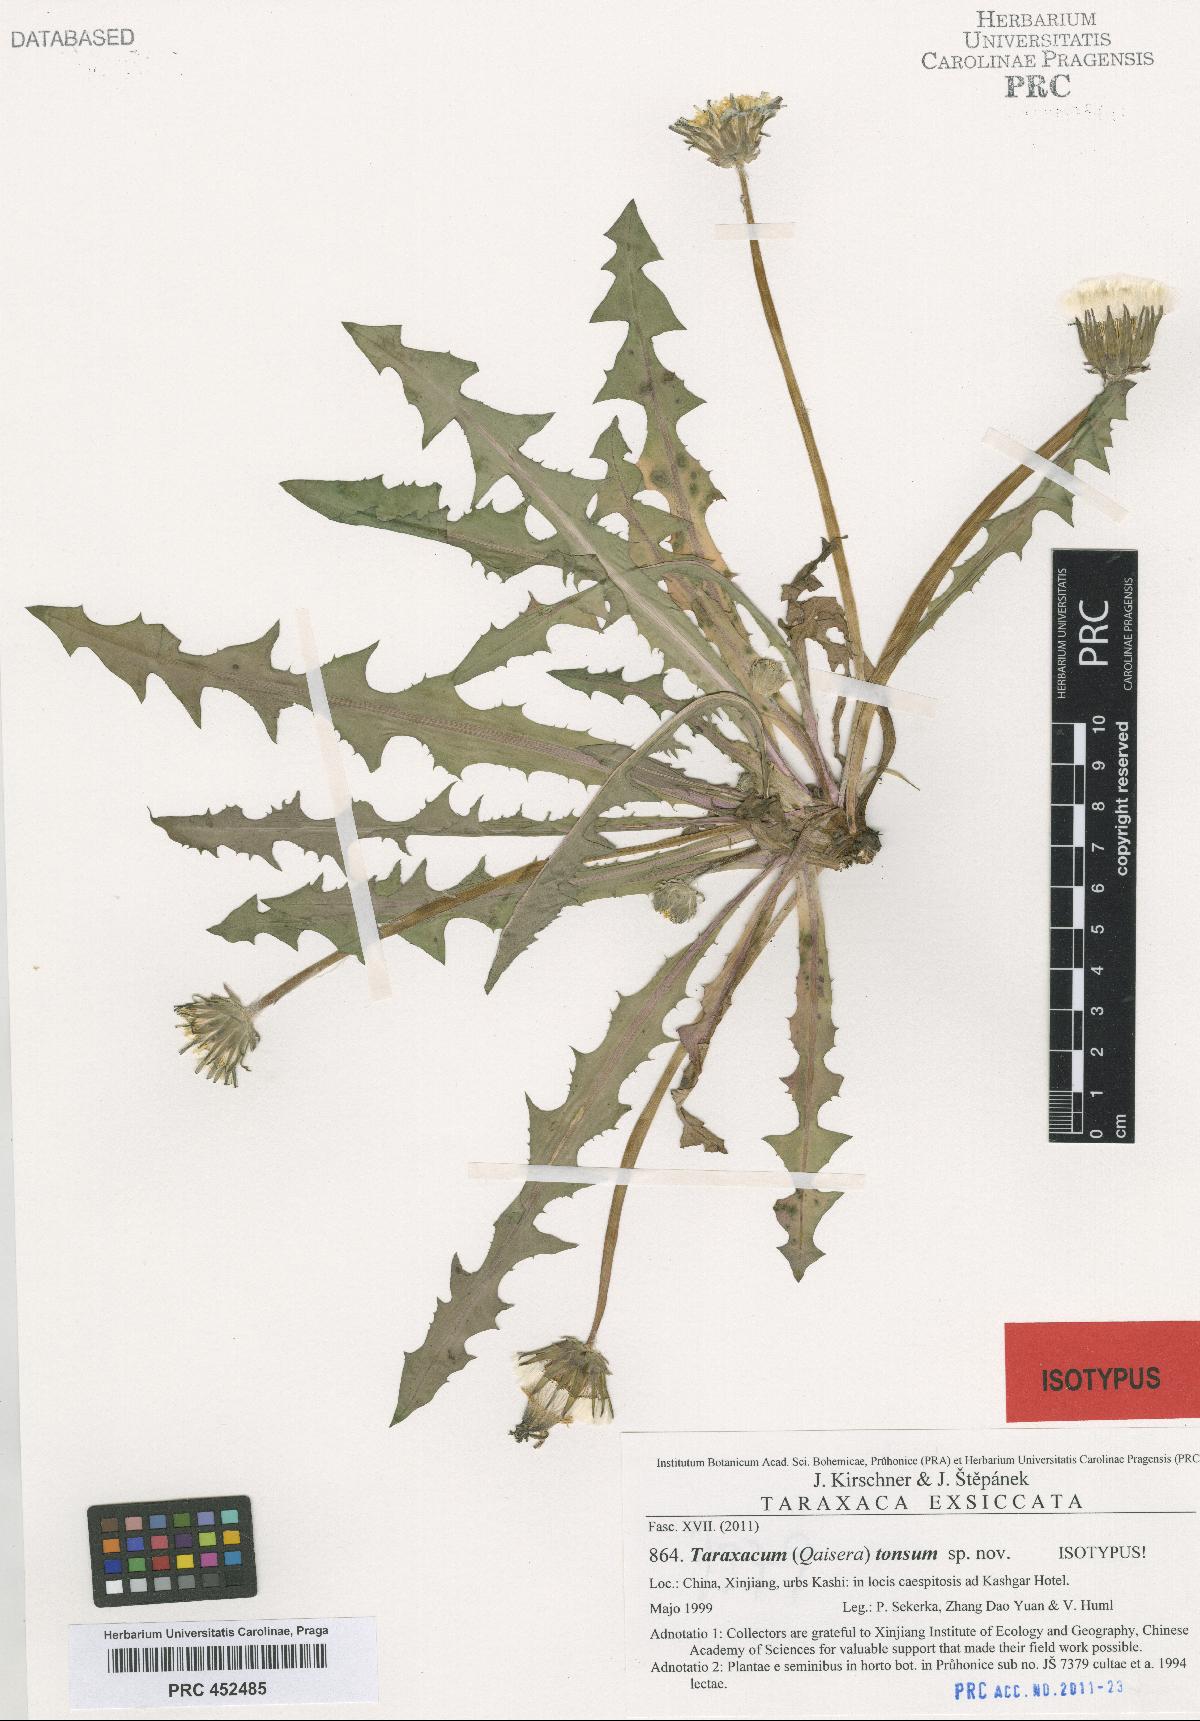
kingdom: Plantae
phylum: Tracheophyta
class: Magnoliopsida
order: Asterales
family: Asteraceae
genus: Taraxacum
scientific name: Taraxacum tonsum
